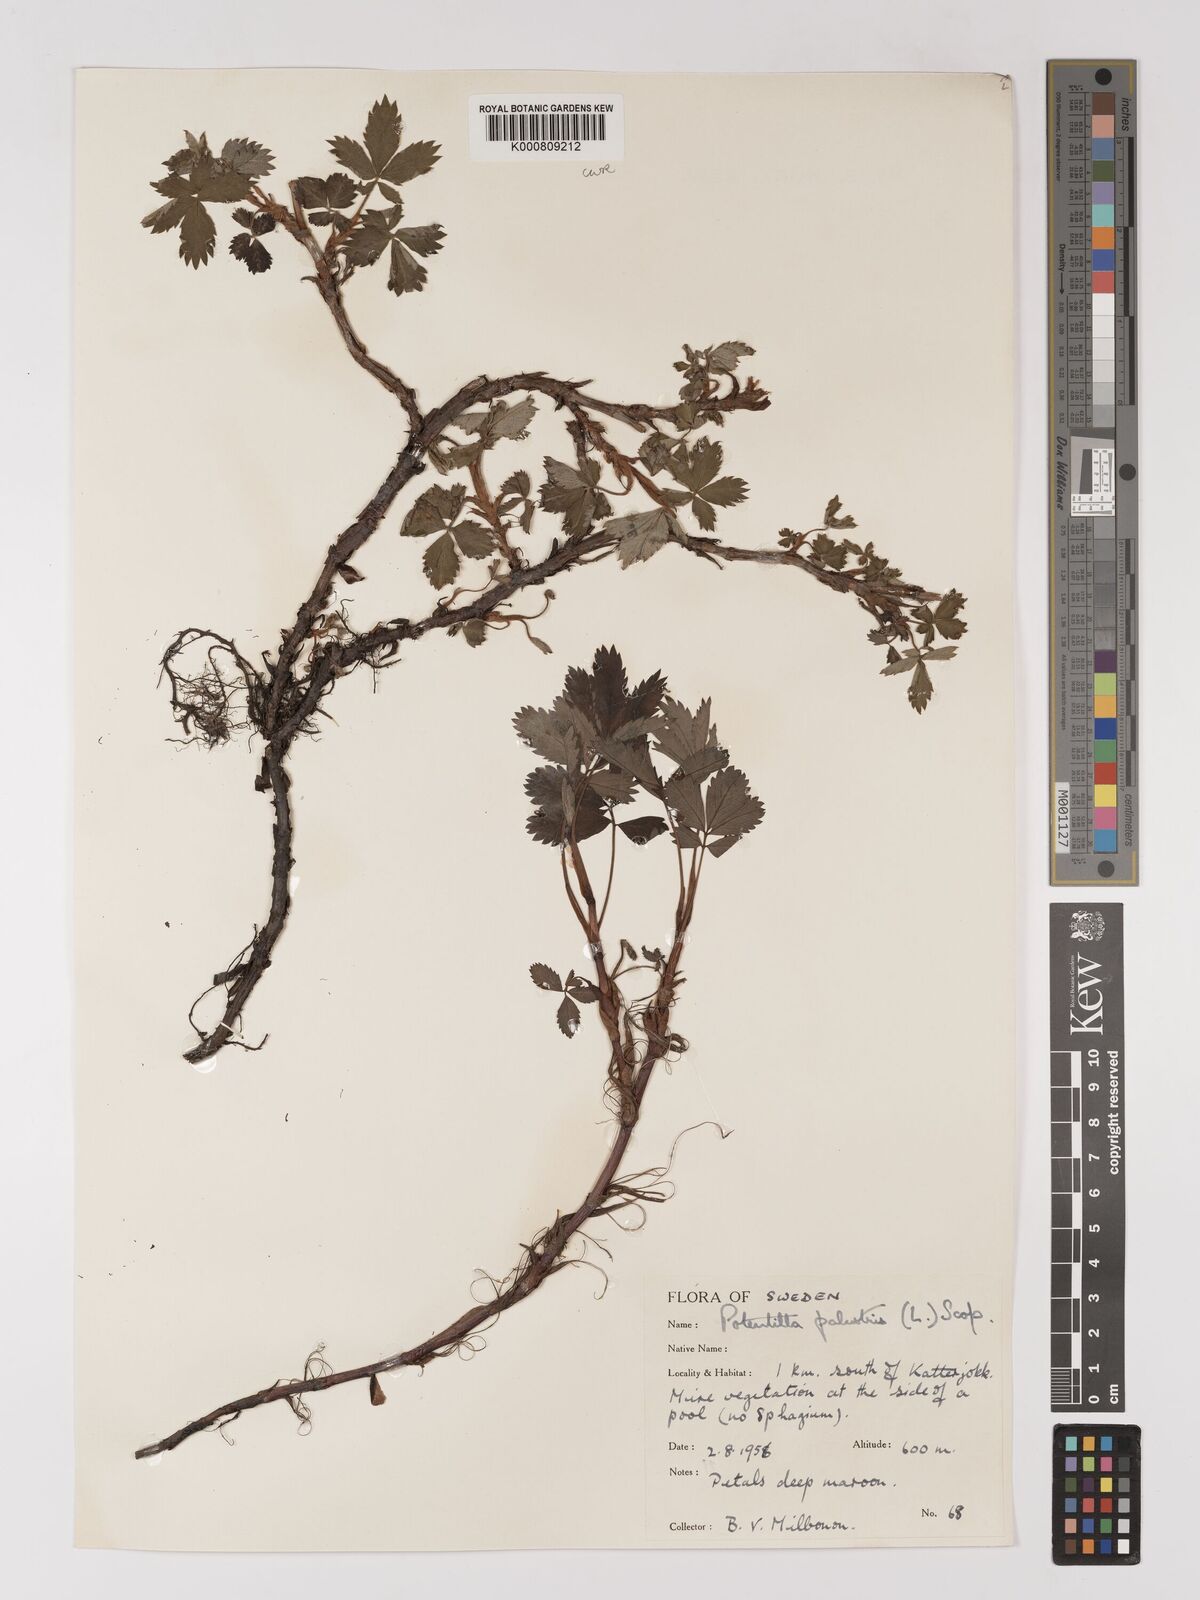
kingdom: Plantae
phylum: Tracheophyta
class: Magnoliopsida
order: Rosales
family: Rosaceae
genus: Comarum
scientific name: Comarum palustre
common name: Marsh cinquefoil
